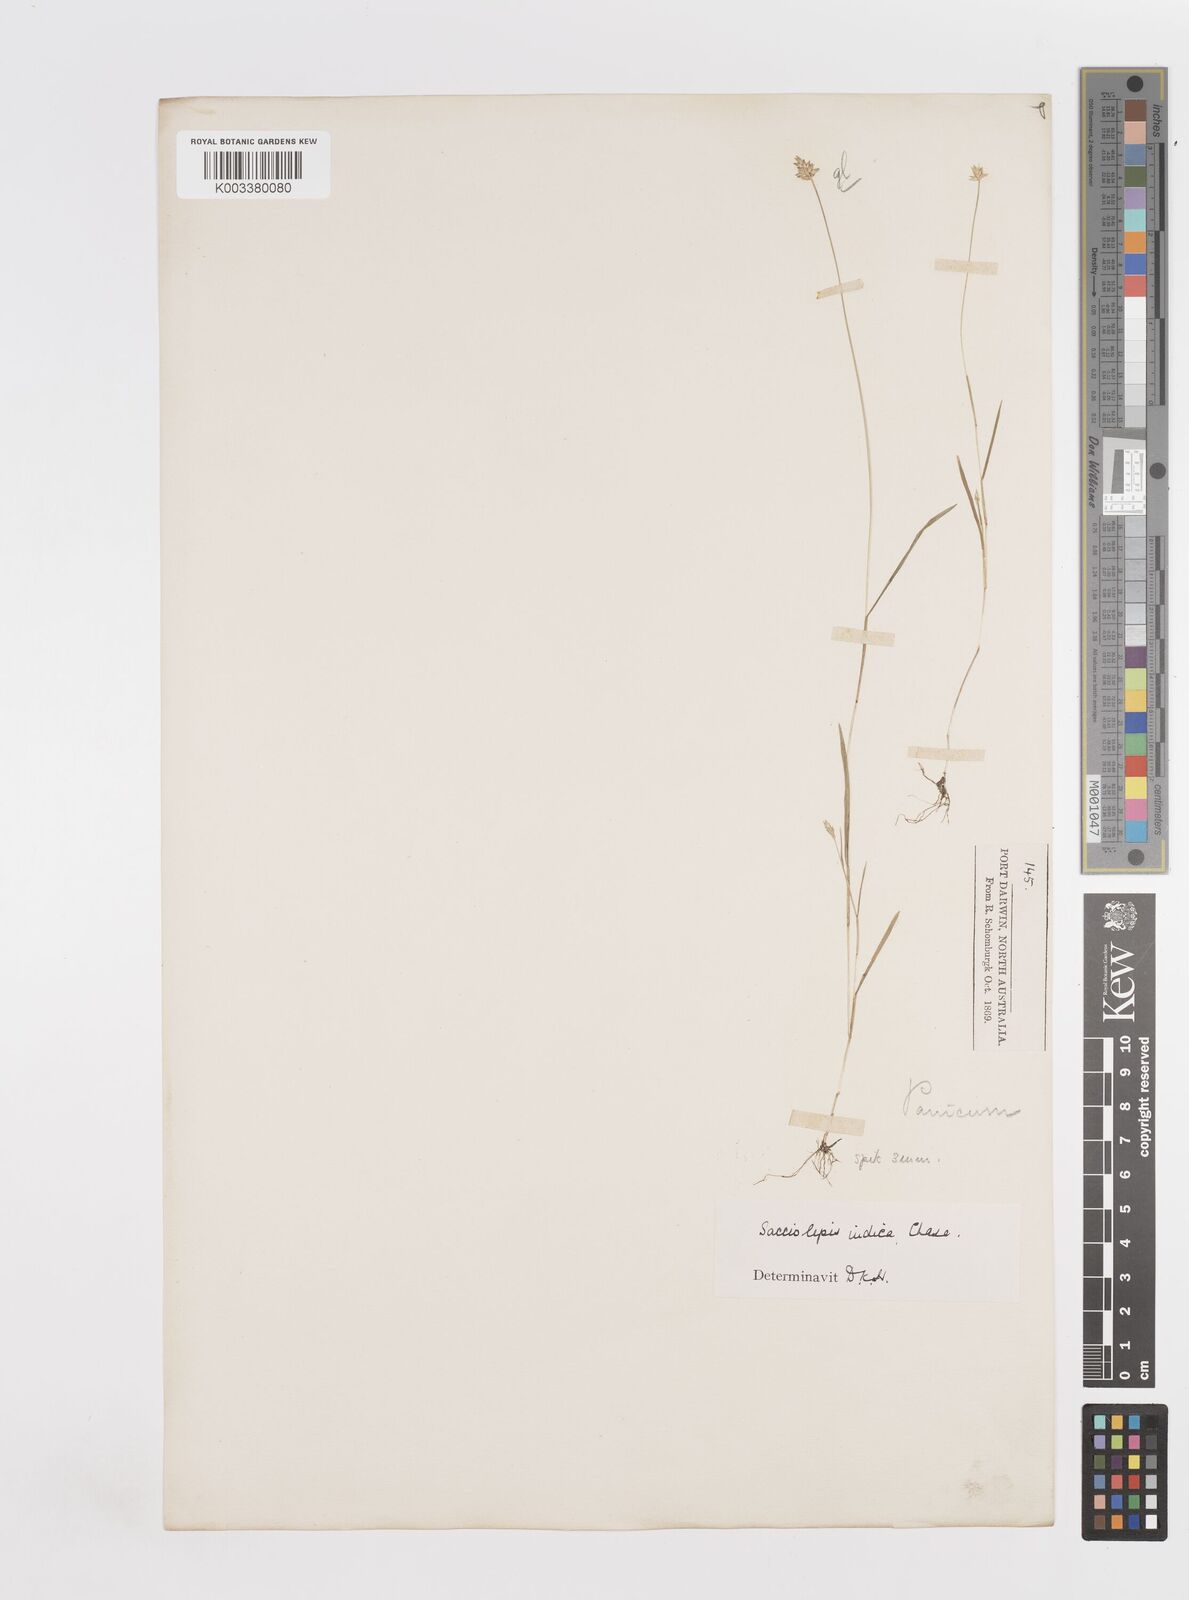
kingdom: Plantae
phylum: Tracheophyta
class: Liliopsida
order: Poales
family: Poaceae
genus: Sacciolepis
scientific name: Sacciolepis indica
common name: Glenwoodgrass
